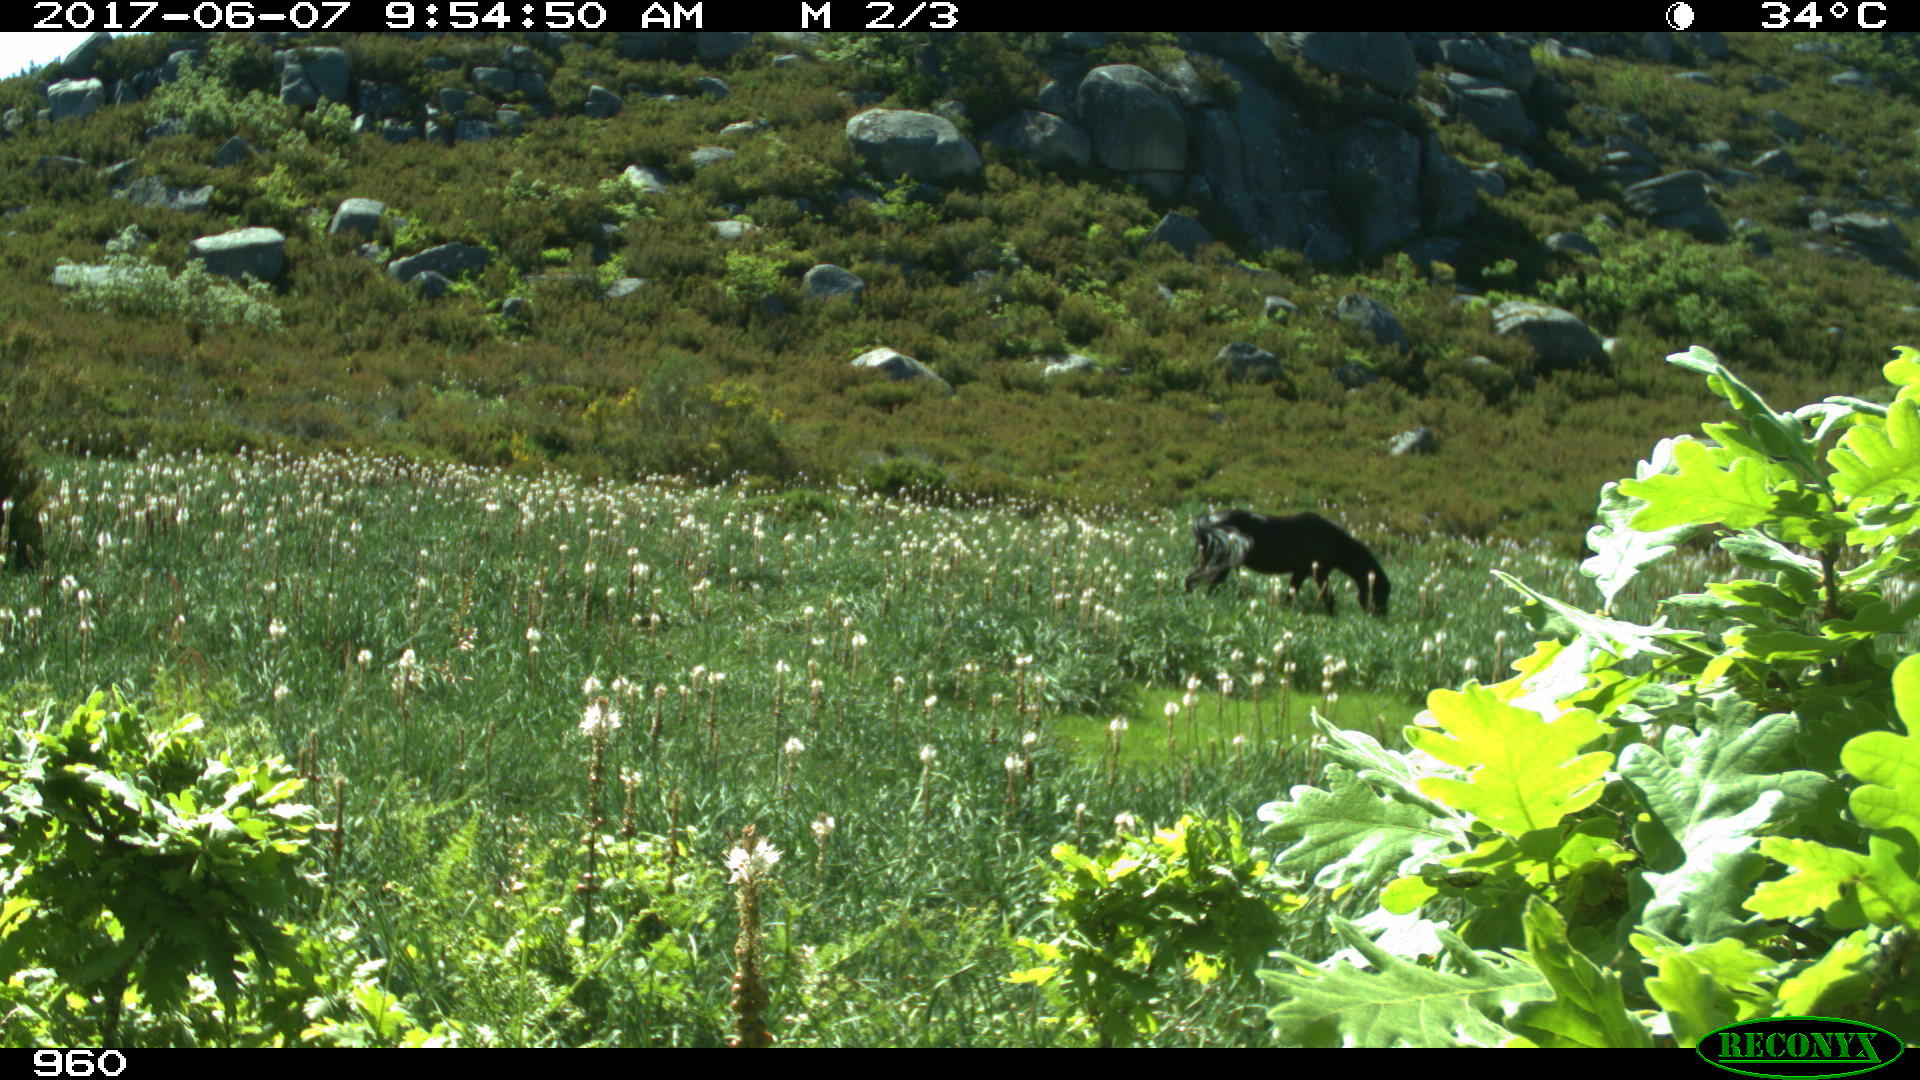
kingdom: Animalia
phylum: Chordata
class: Mammalia
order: Perissodactyla
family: Equidae
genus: Equus
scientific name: Equus caballus
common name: Horse
